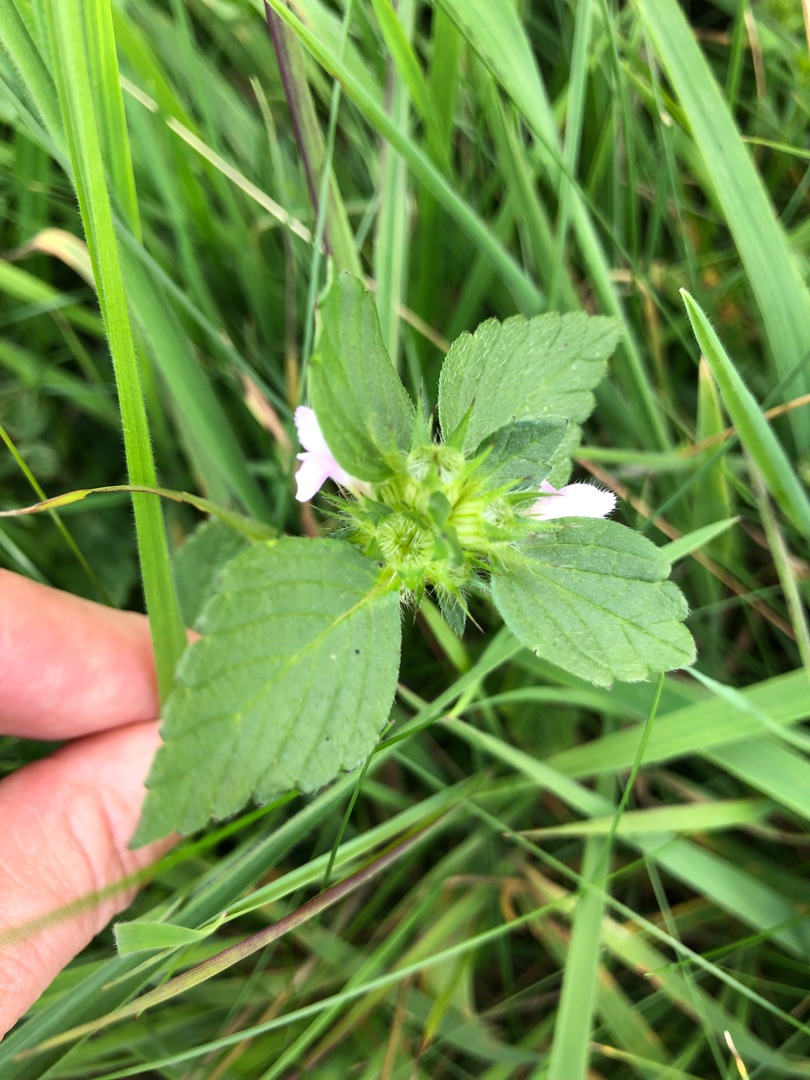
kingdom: Plantae
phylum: Tracheophyta
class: Magnoliopsida
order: Lamiales
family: Lamiaceae
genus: Galeopsis
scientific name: Galeopsis
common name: Hanekroslægten
